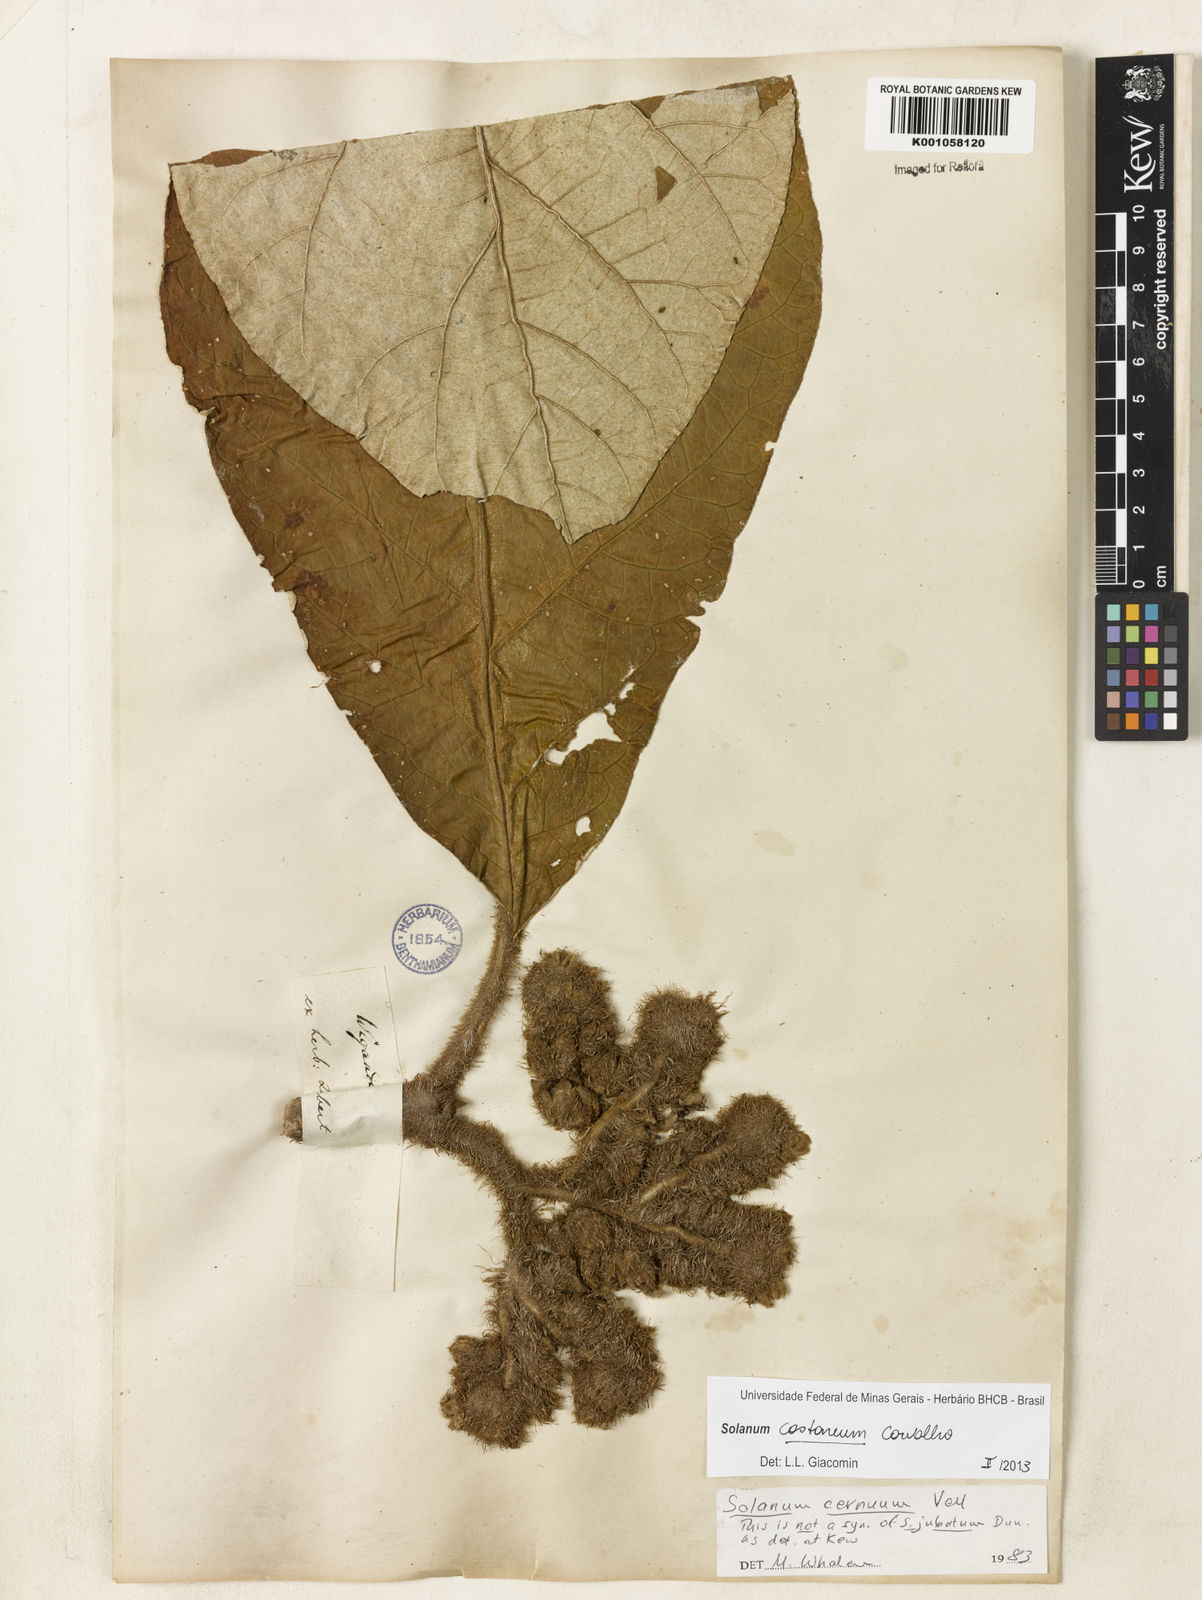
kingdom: Plantae
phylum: Tracheophyta
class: Magnoliopsida
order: Solanales
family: Solanaceae
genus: Solanum
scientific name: Solanum castaneum
